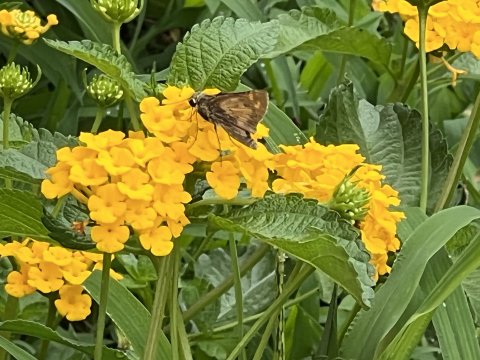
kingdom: Animalia
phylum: Arthropoda
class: Insecta
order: Lepidoptera
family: Hesperiidae
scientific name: Hesperiidae
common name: Skippers
